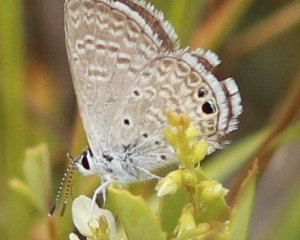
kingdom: Animalia
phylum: Arthropoda
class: Insecta
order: Lepidoptera
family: Lycaenidae
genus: Hemiargus
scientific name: Hemiargus ceraunus
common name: Ceraunus Blue
